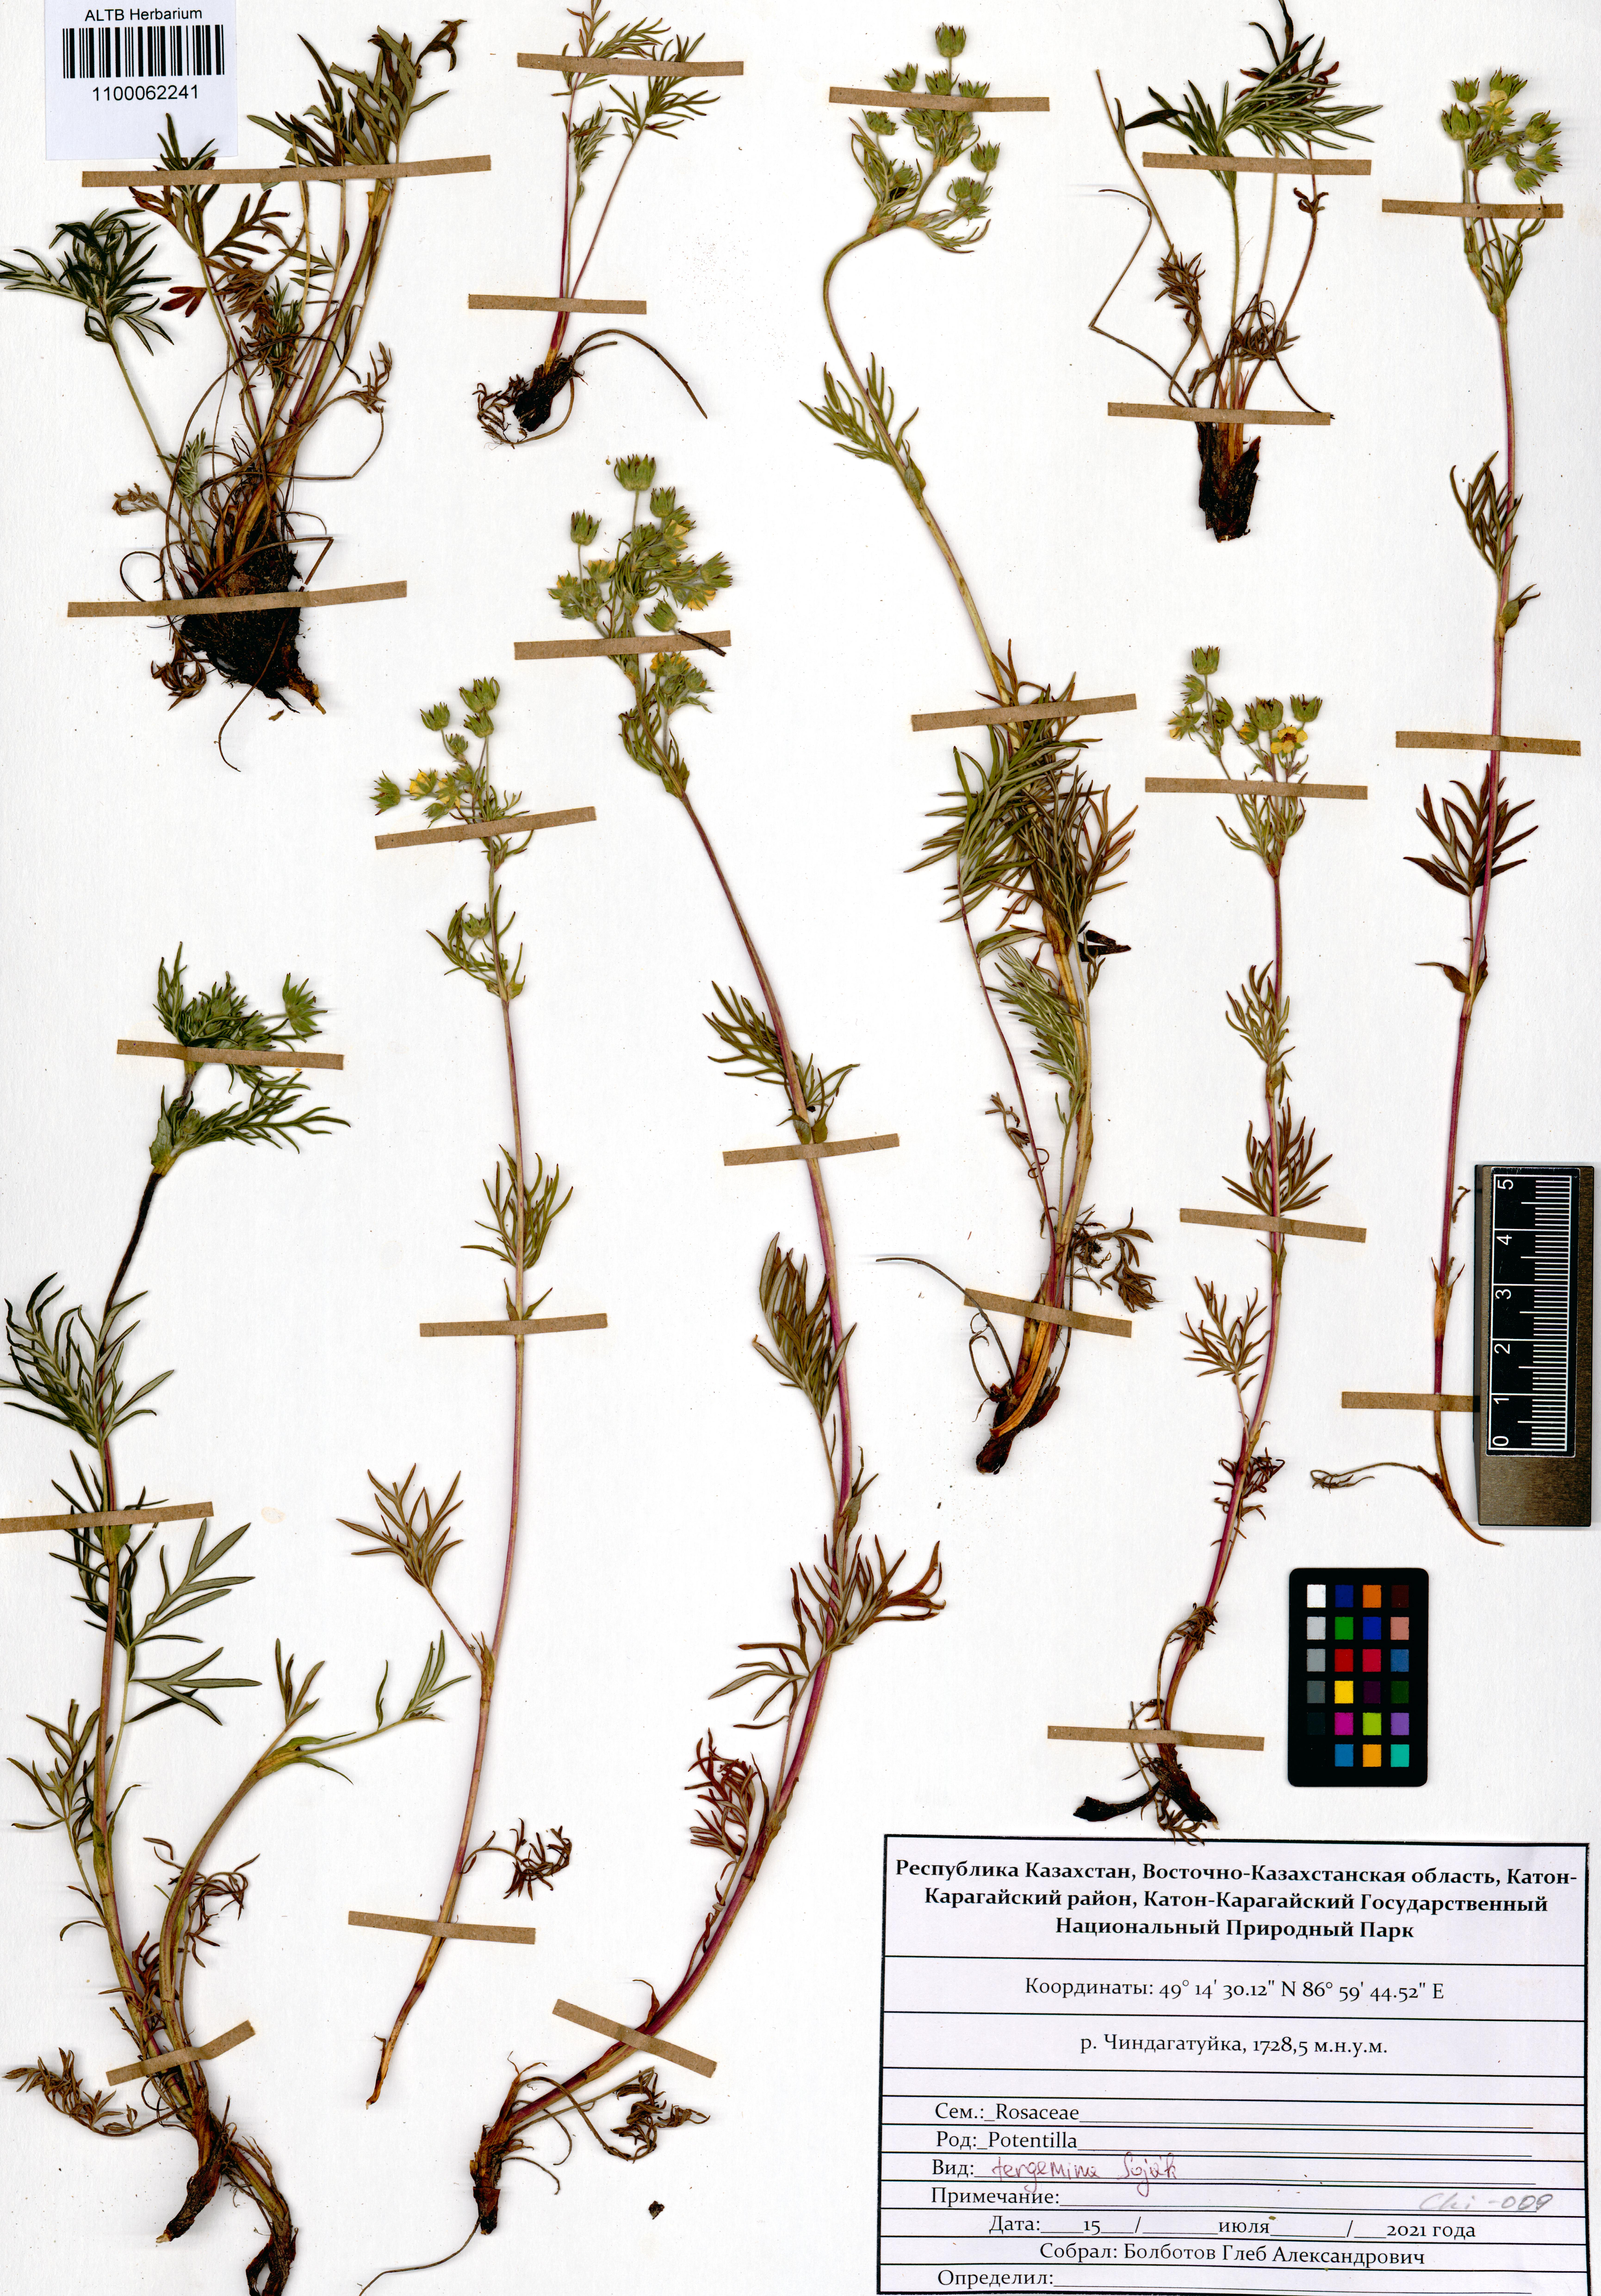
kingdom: Plantae
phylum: Tracheophyta
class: Magnoliopsida
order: Rosales
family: Rosaceae
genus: Potentilla
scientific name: Potentilla tergemina
